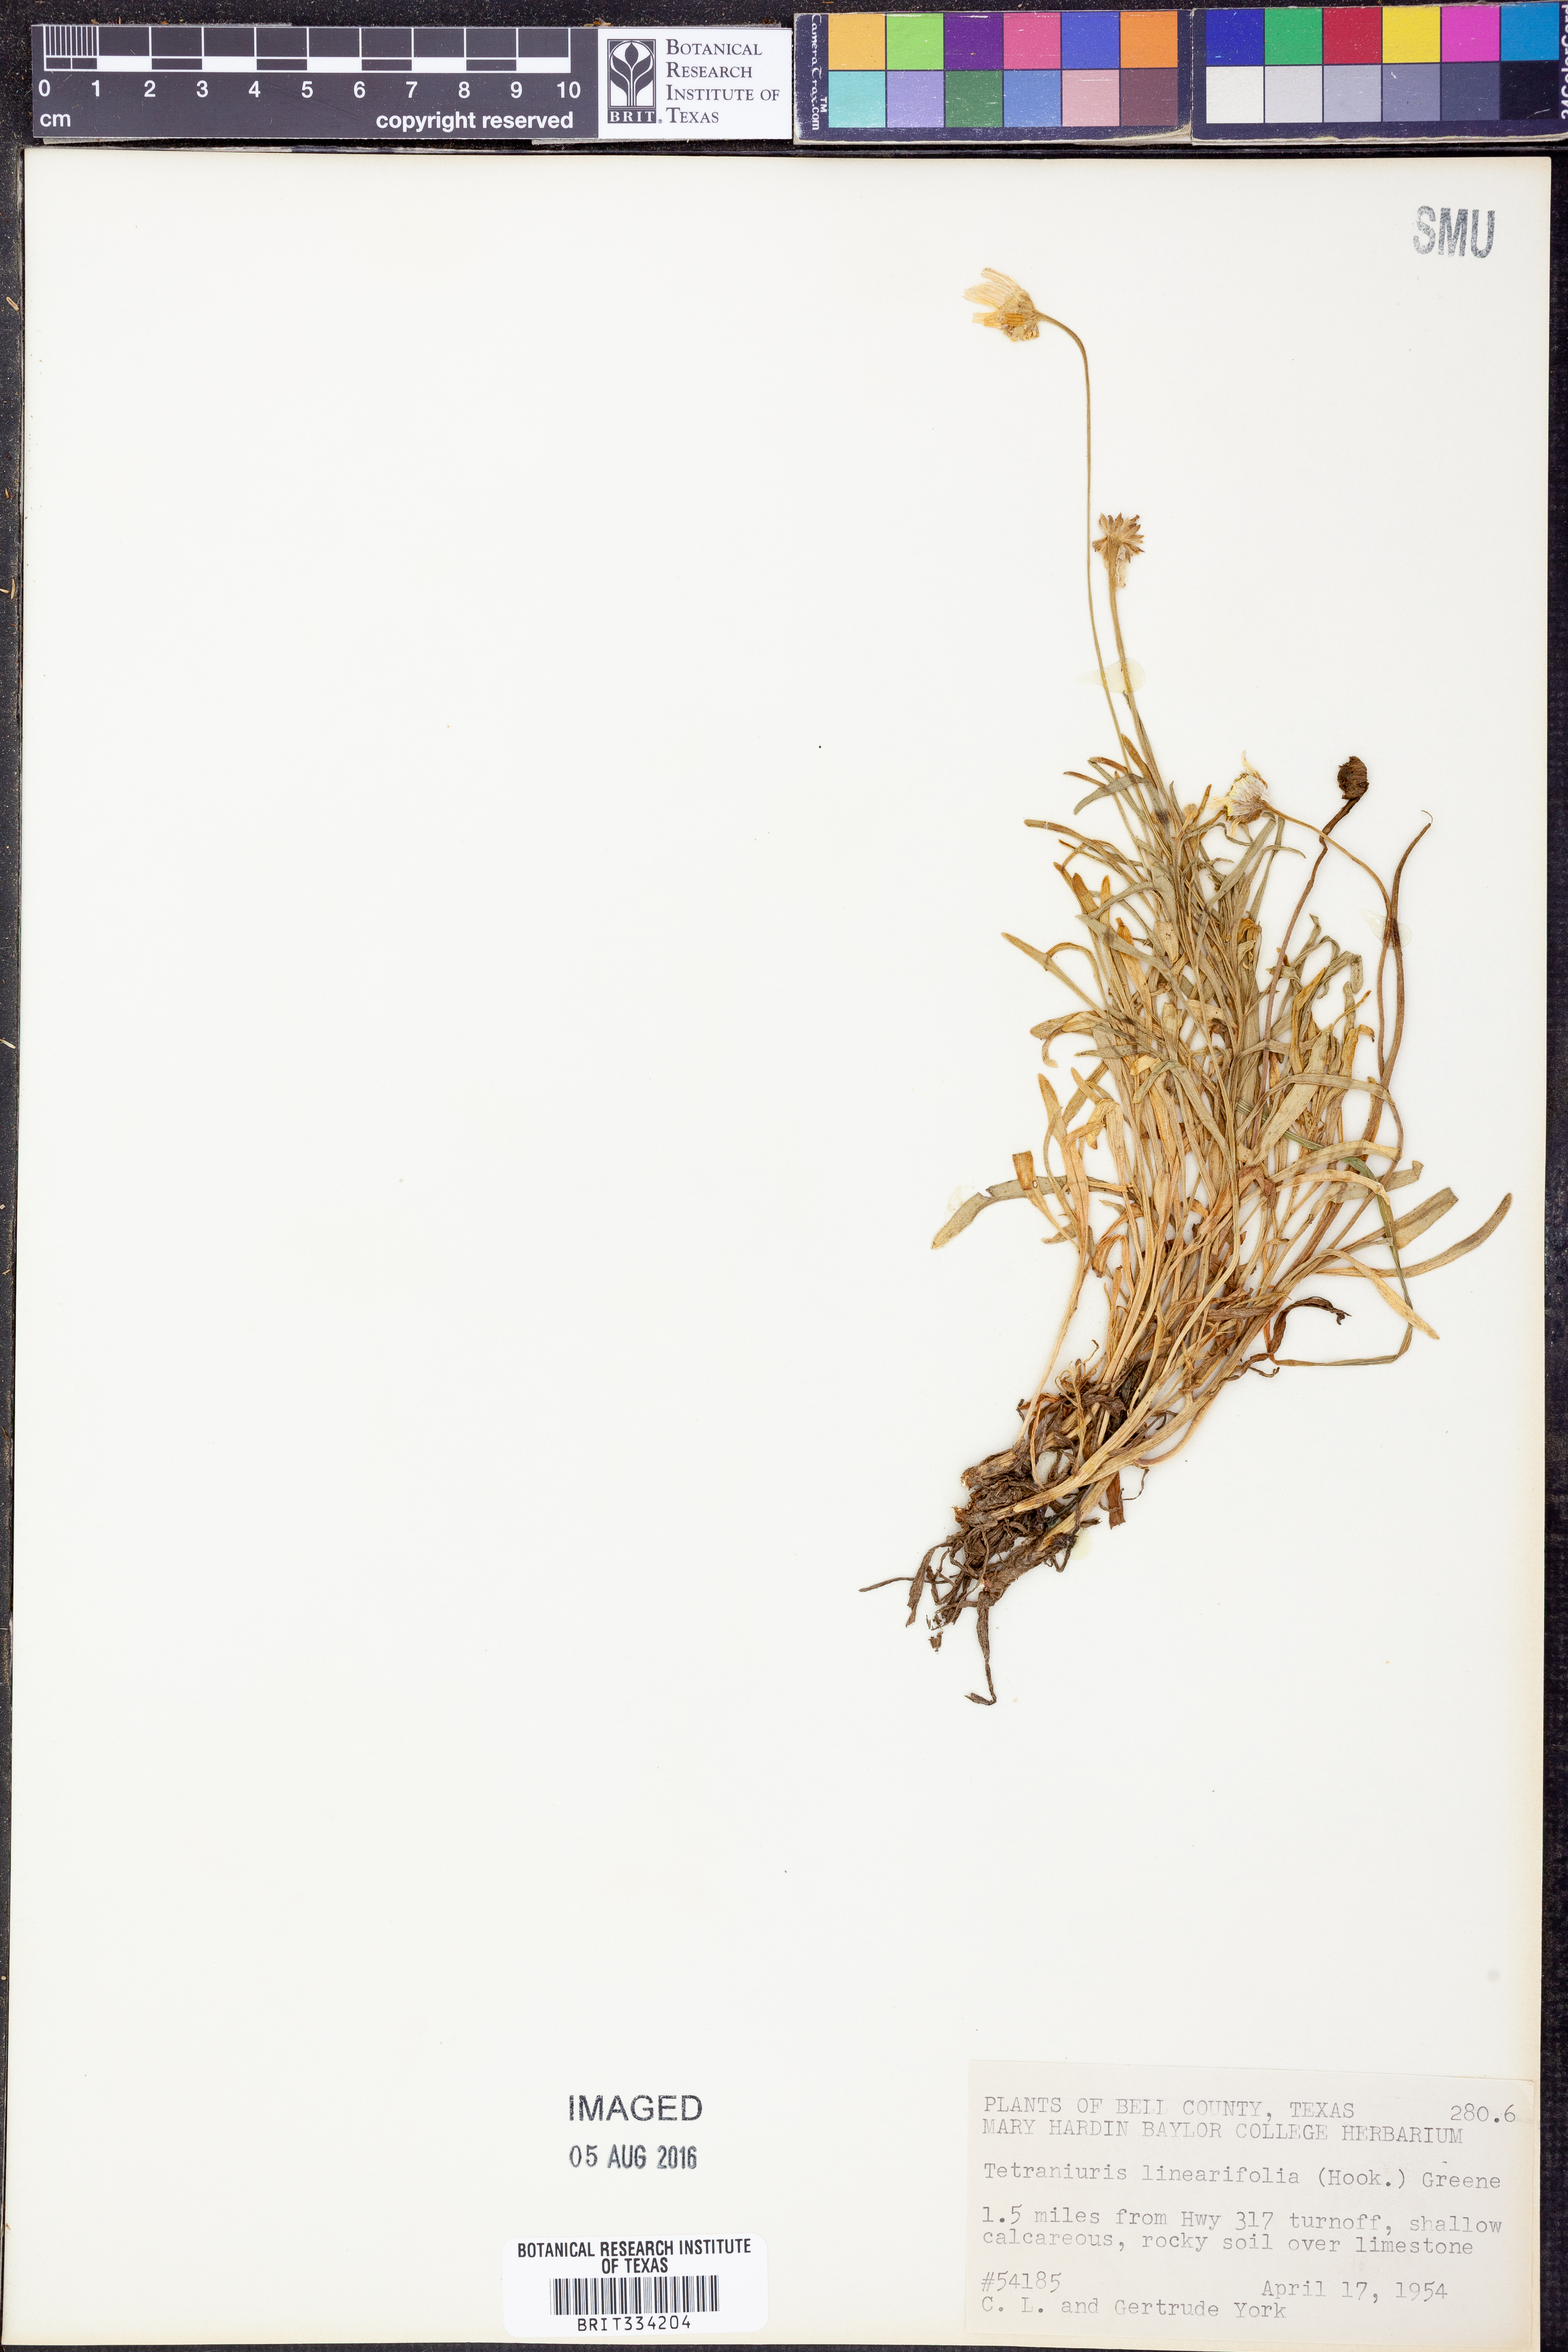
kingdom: Plantae
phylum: Tracheophyta
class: Magnoliopsida
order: Asterales
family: Asteraceae
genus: Tetraneuris
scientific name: Tetraneuris linearifolia
